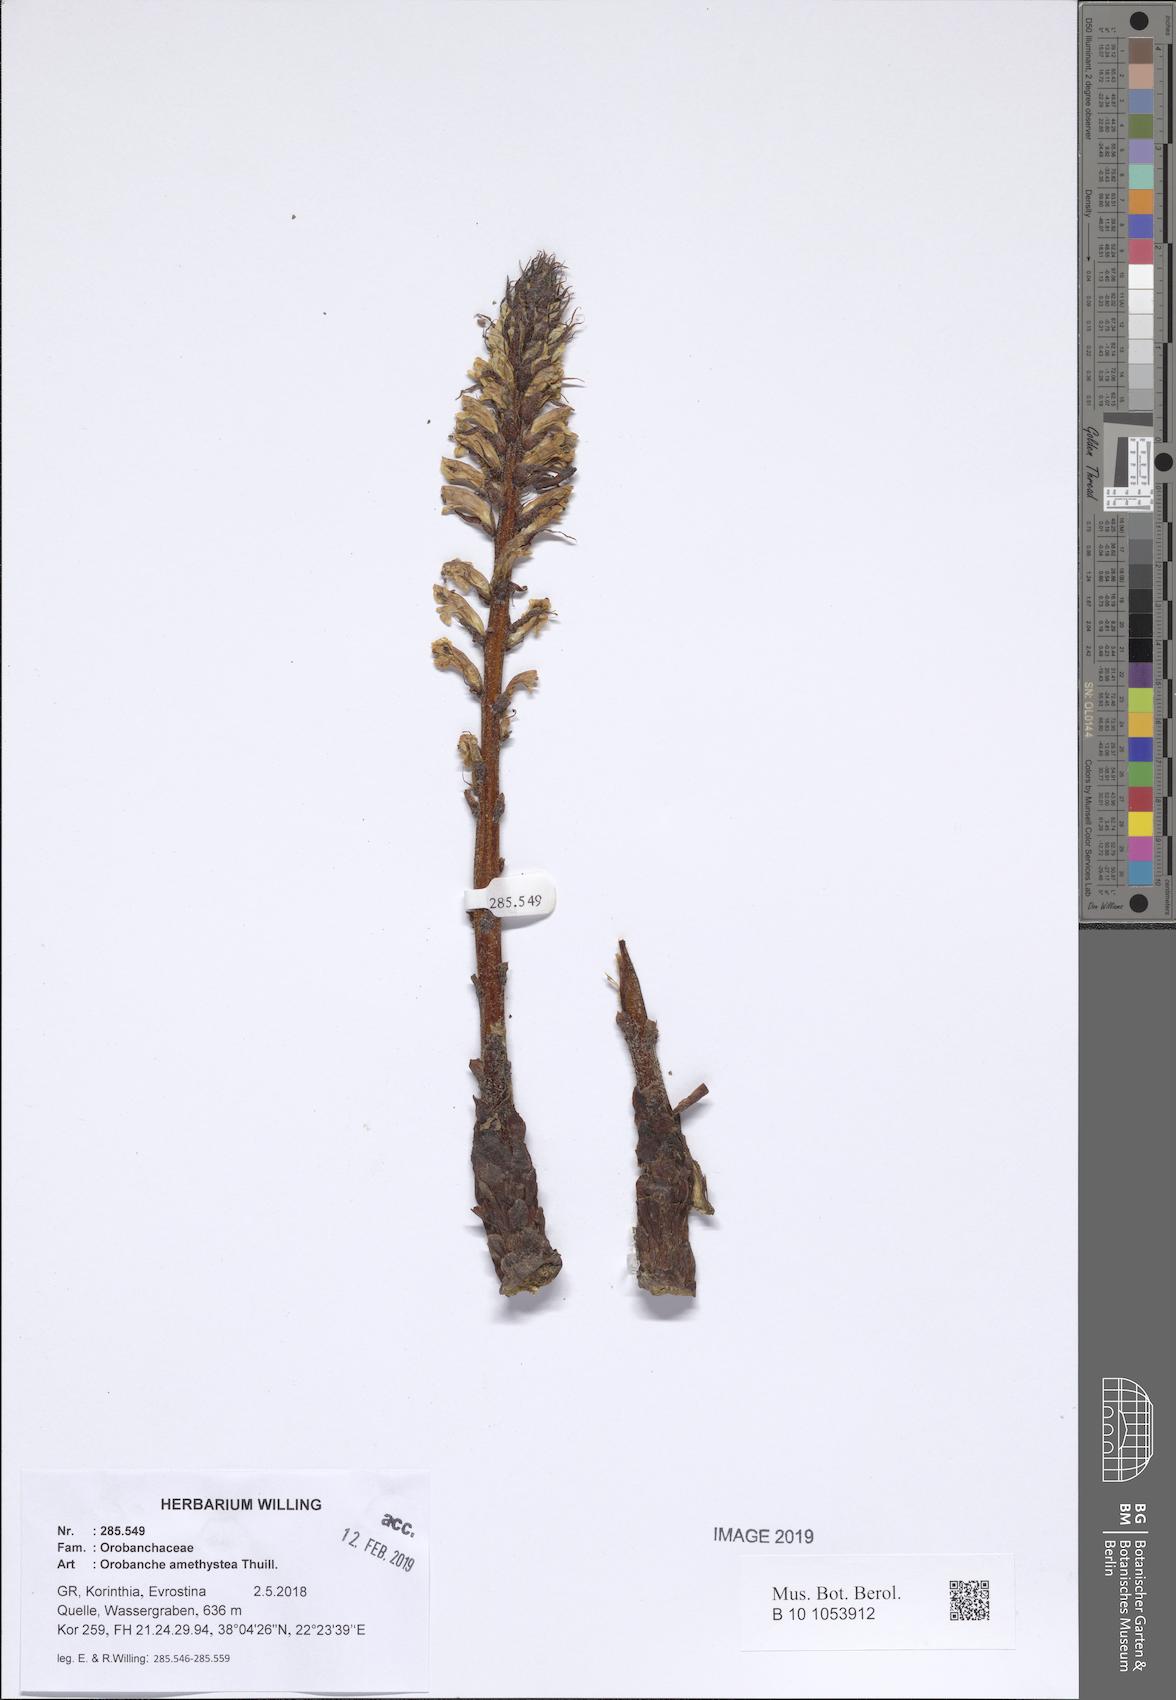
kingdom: Plantae
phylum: Tracheophyta
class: Magnoliopsida
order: Lamiales
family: Orobanchaceae
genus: Orobanche
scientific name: Orobanche amethystea
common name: Amethyst broomrape
